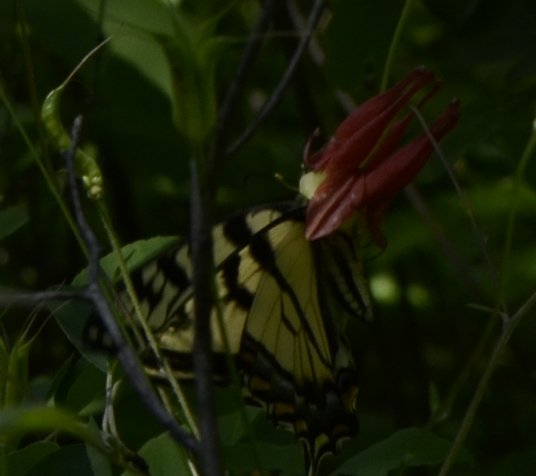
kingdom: Animalia
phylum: Arthropoda
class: Insecta
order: Lepidoptera
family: Papilionidae
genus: Pterourus
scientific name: Pterourus canadensis
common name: Canadian Tiger Swallowtail
